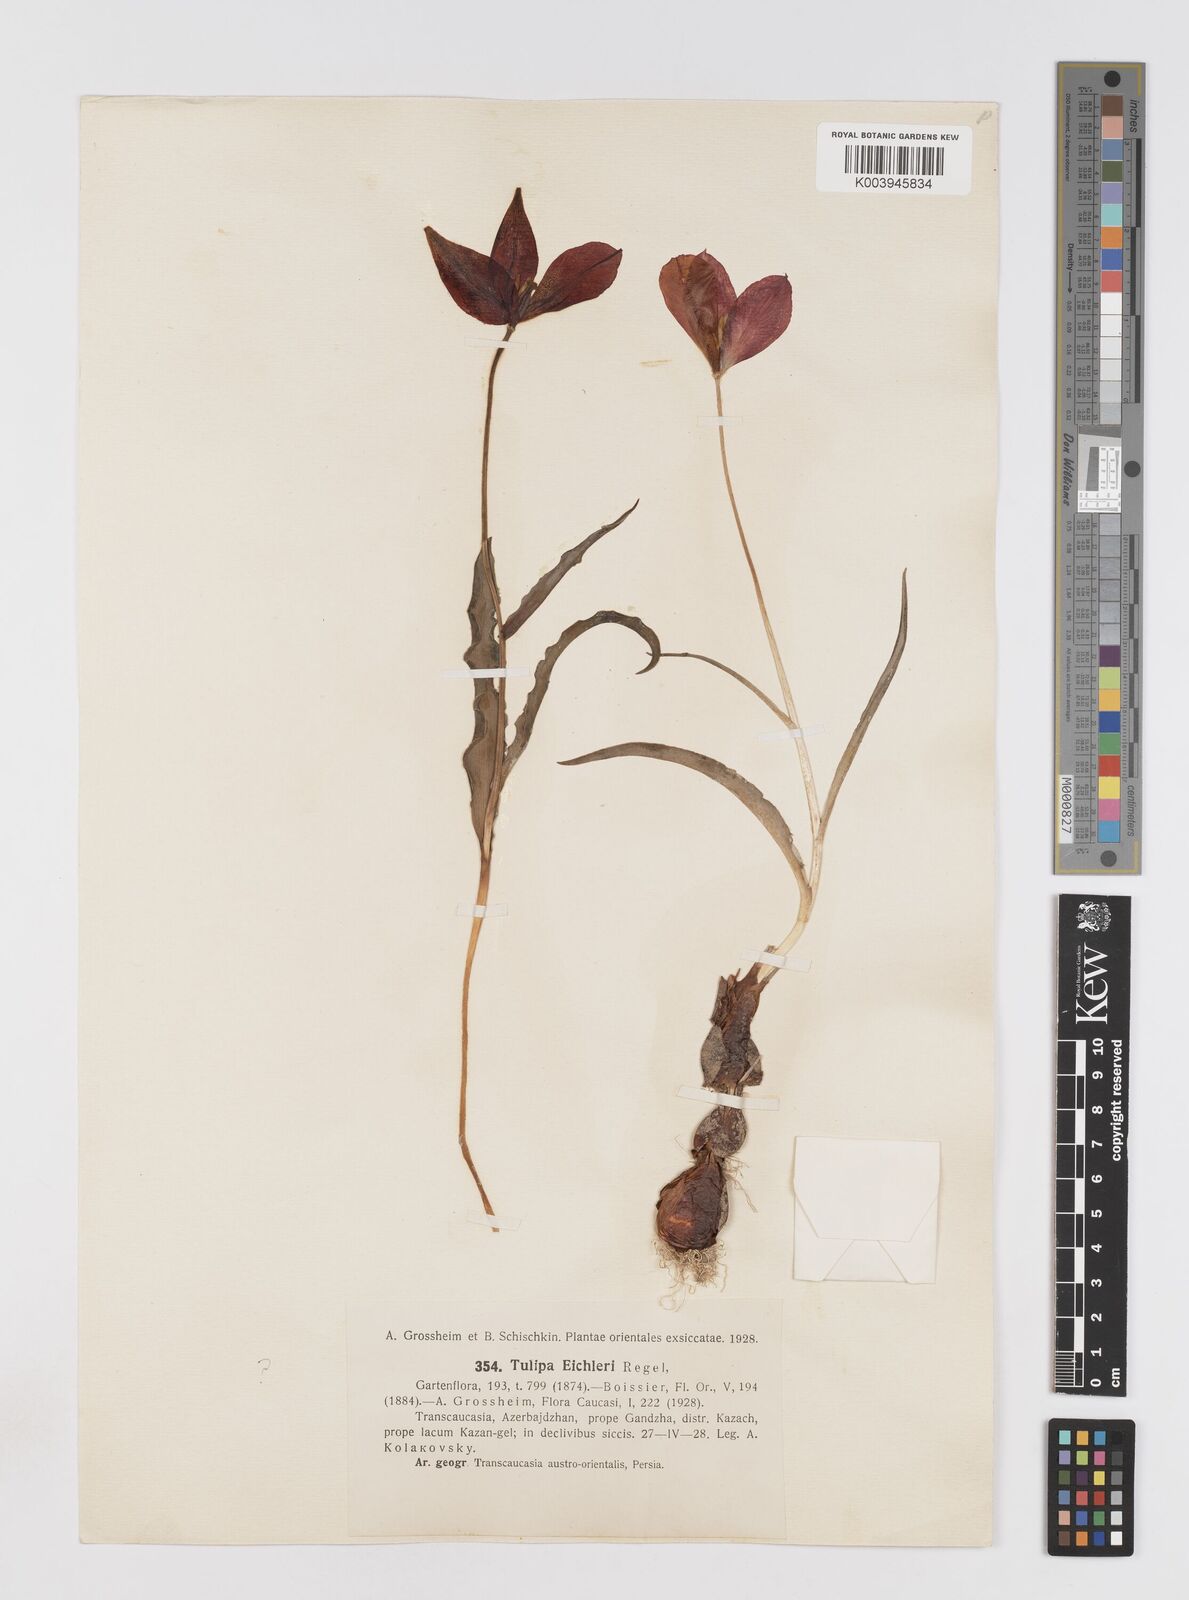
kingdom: Plantae
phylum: Tracheophyta
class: Liliopsida
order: Liliales
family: Liliaceae
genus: Tulipa
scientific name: Tulipa undulatifolia
